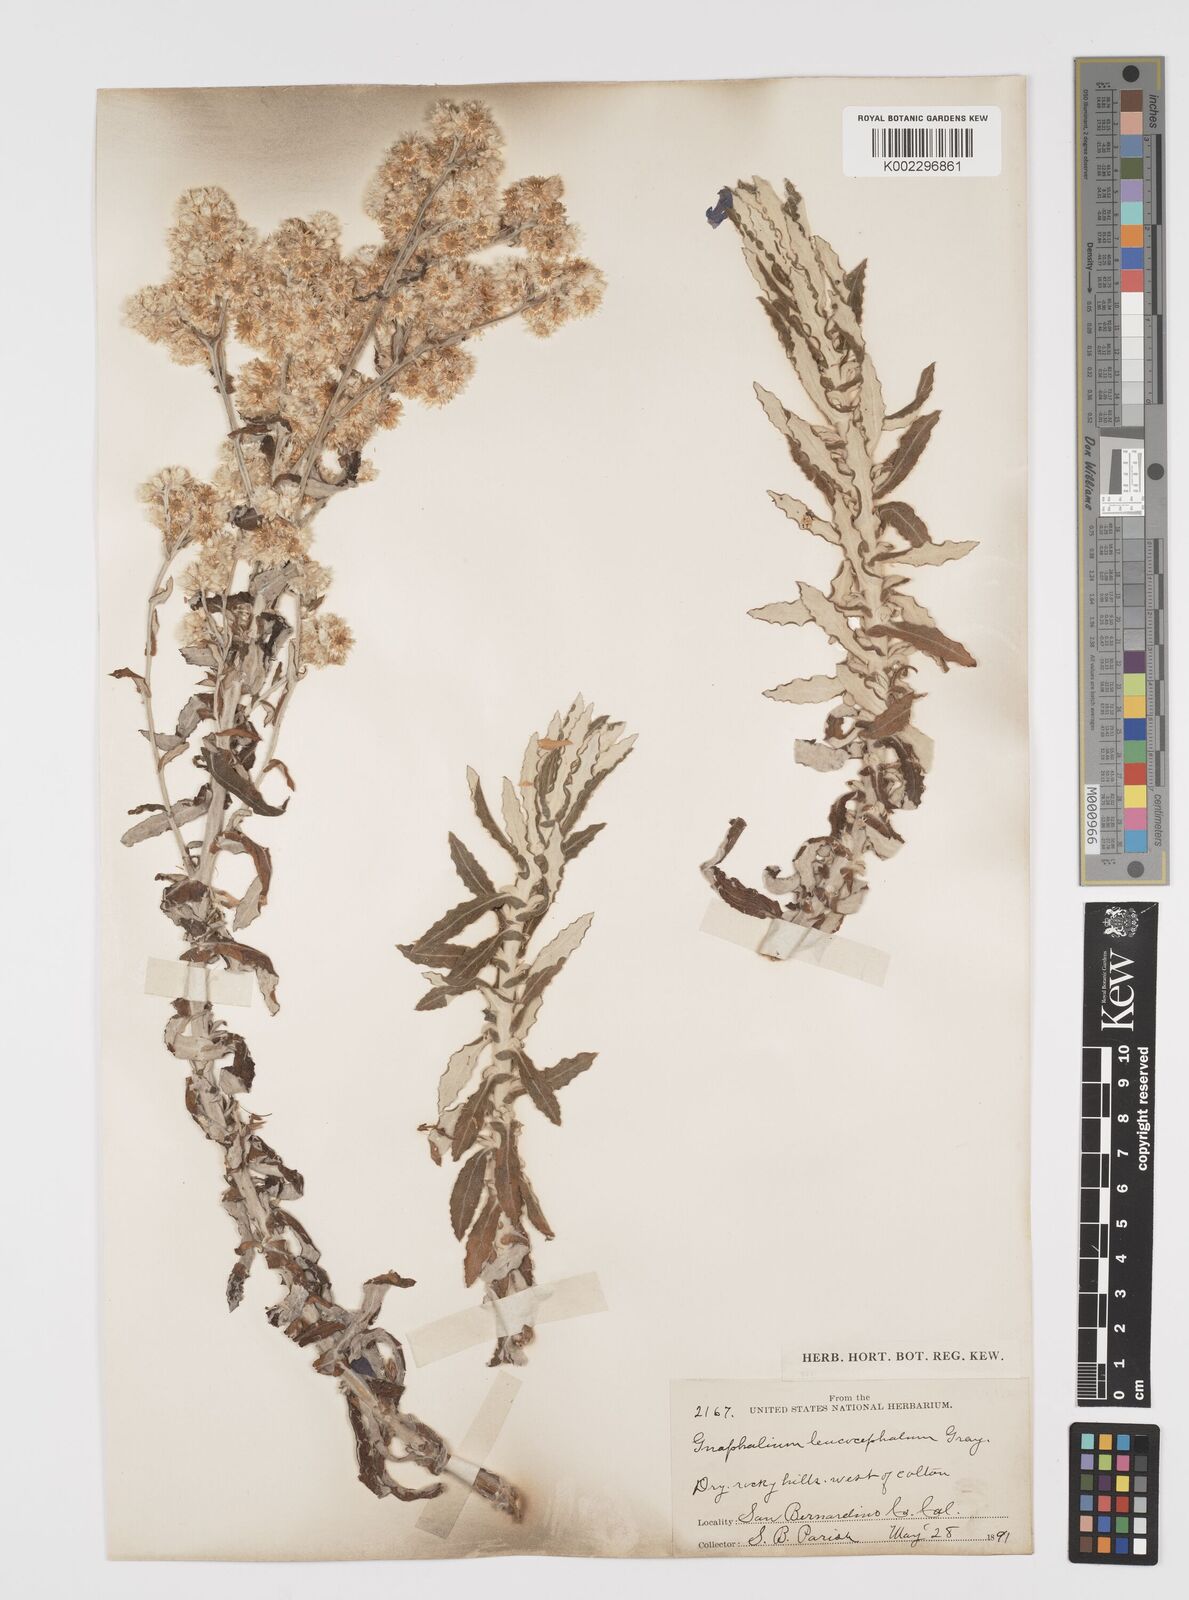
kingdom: Plantae
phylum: Tracheophyta
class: Magnoliopsida
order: Asterales
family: Asteraceae
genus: Pseudognaphalium
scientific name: Pseudognaphalium leucocephalum
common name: White cudweed
